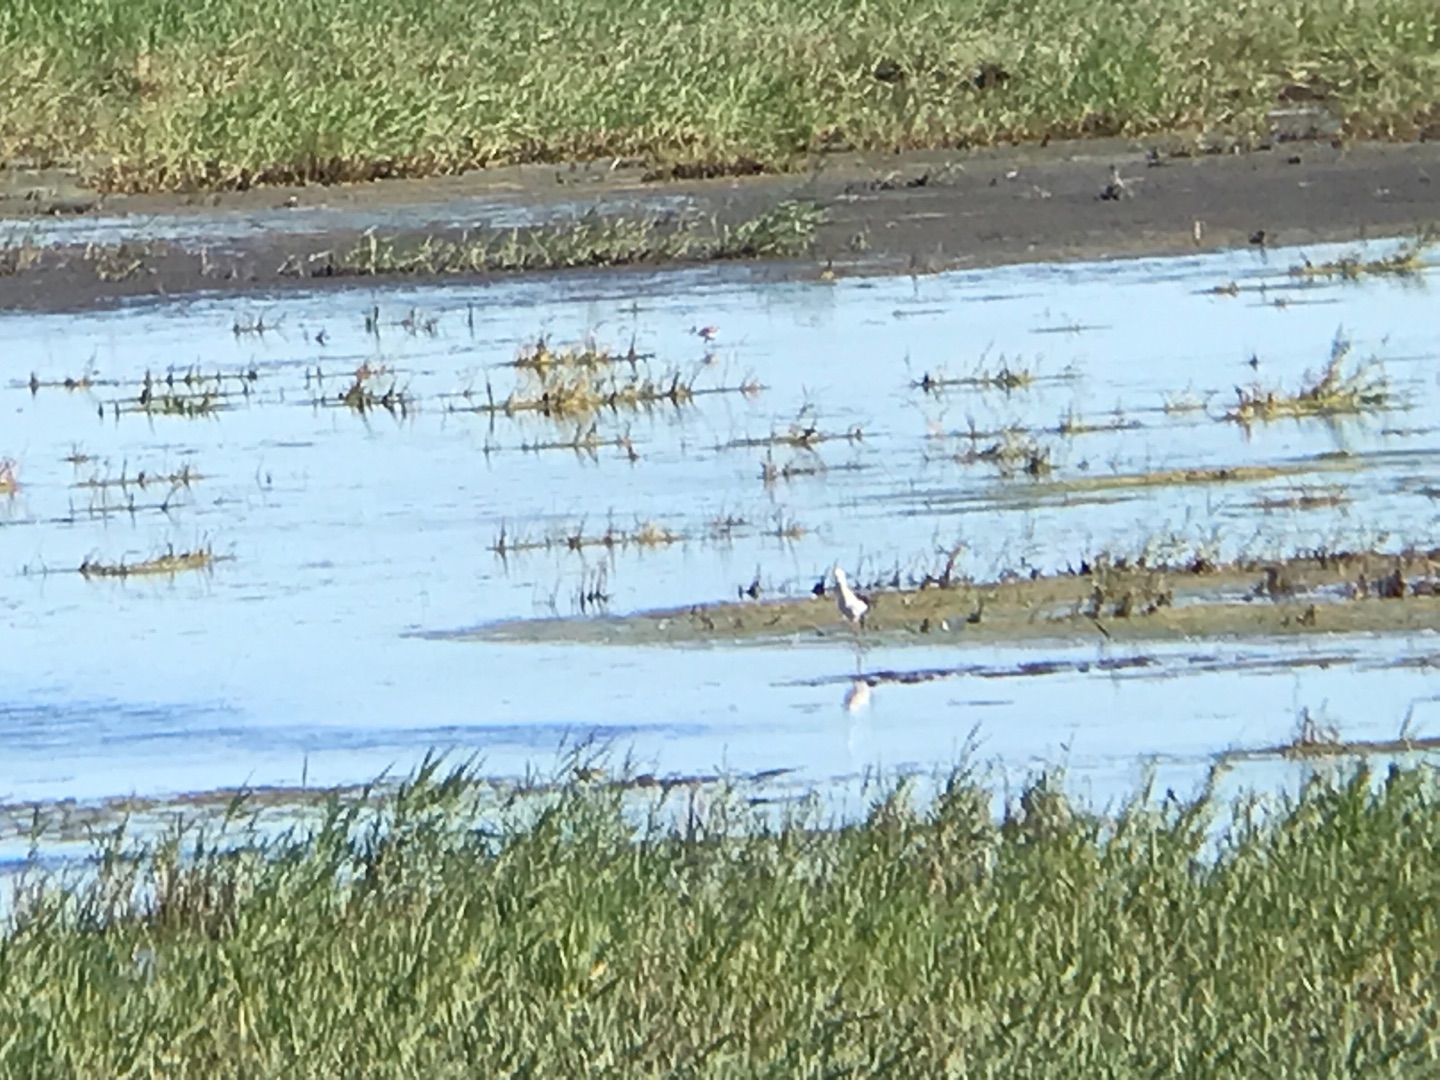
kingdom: Animalia
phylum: Chordata
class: Aves
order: Charadriiformes
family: Recurvirostridae
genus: Himantopus
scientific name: Himantopus himantopus
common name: Stylteløber
